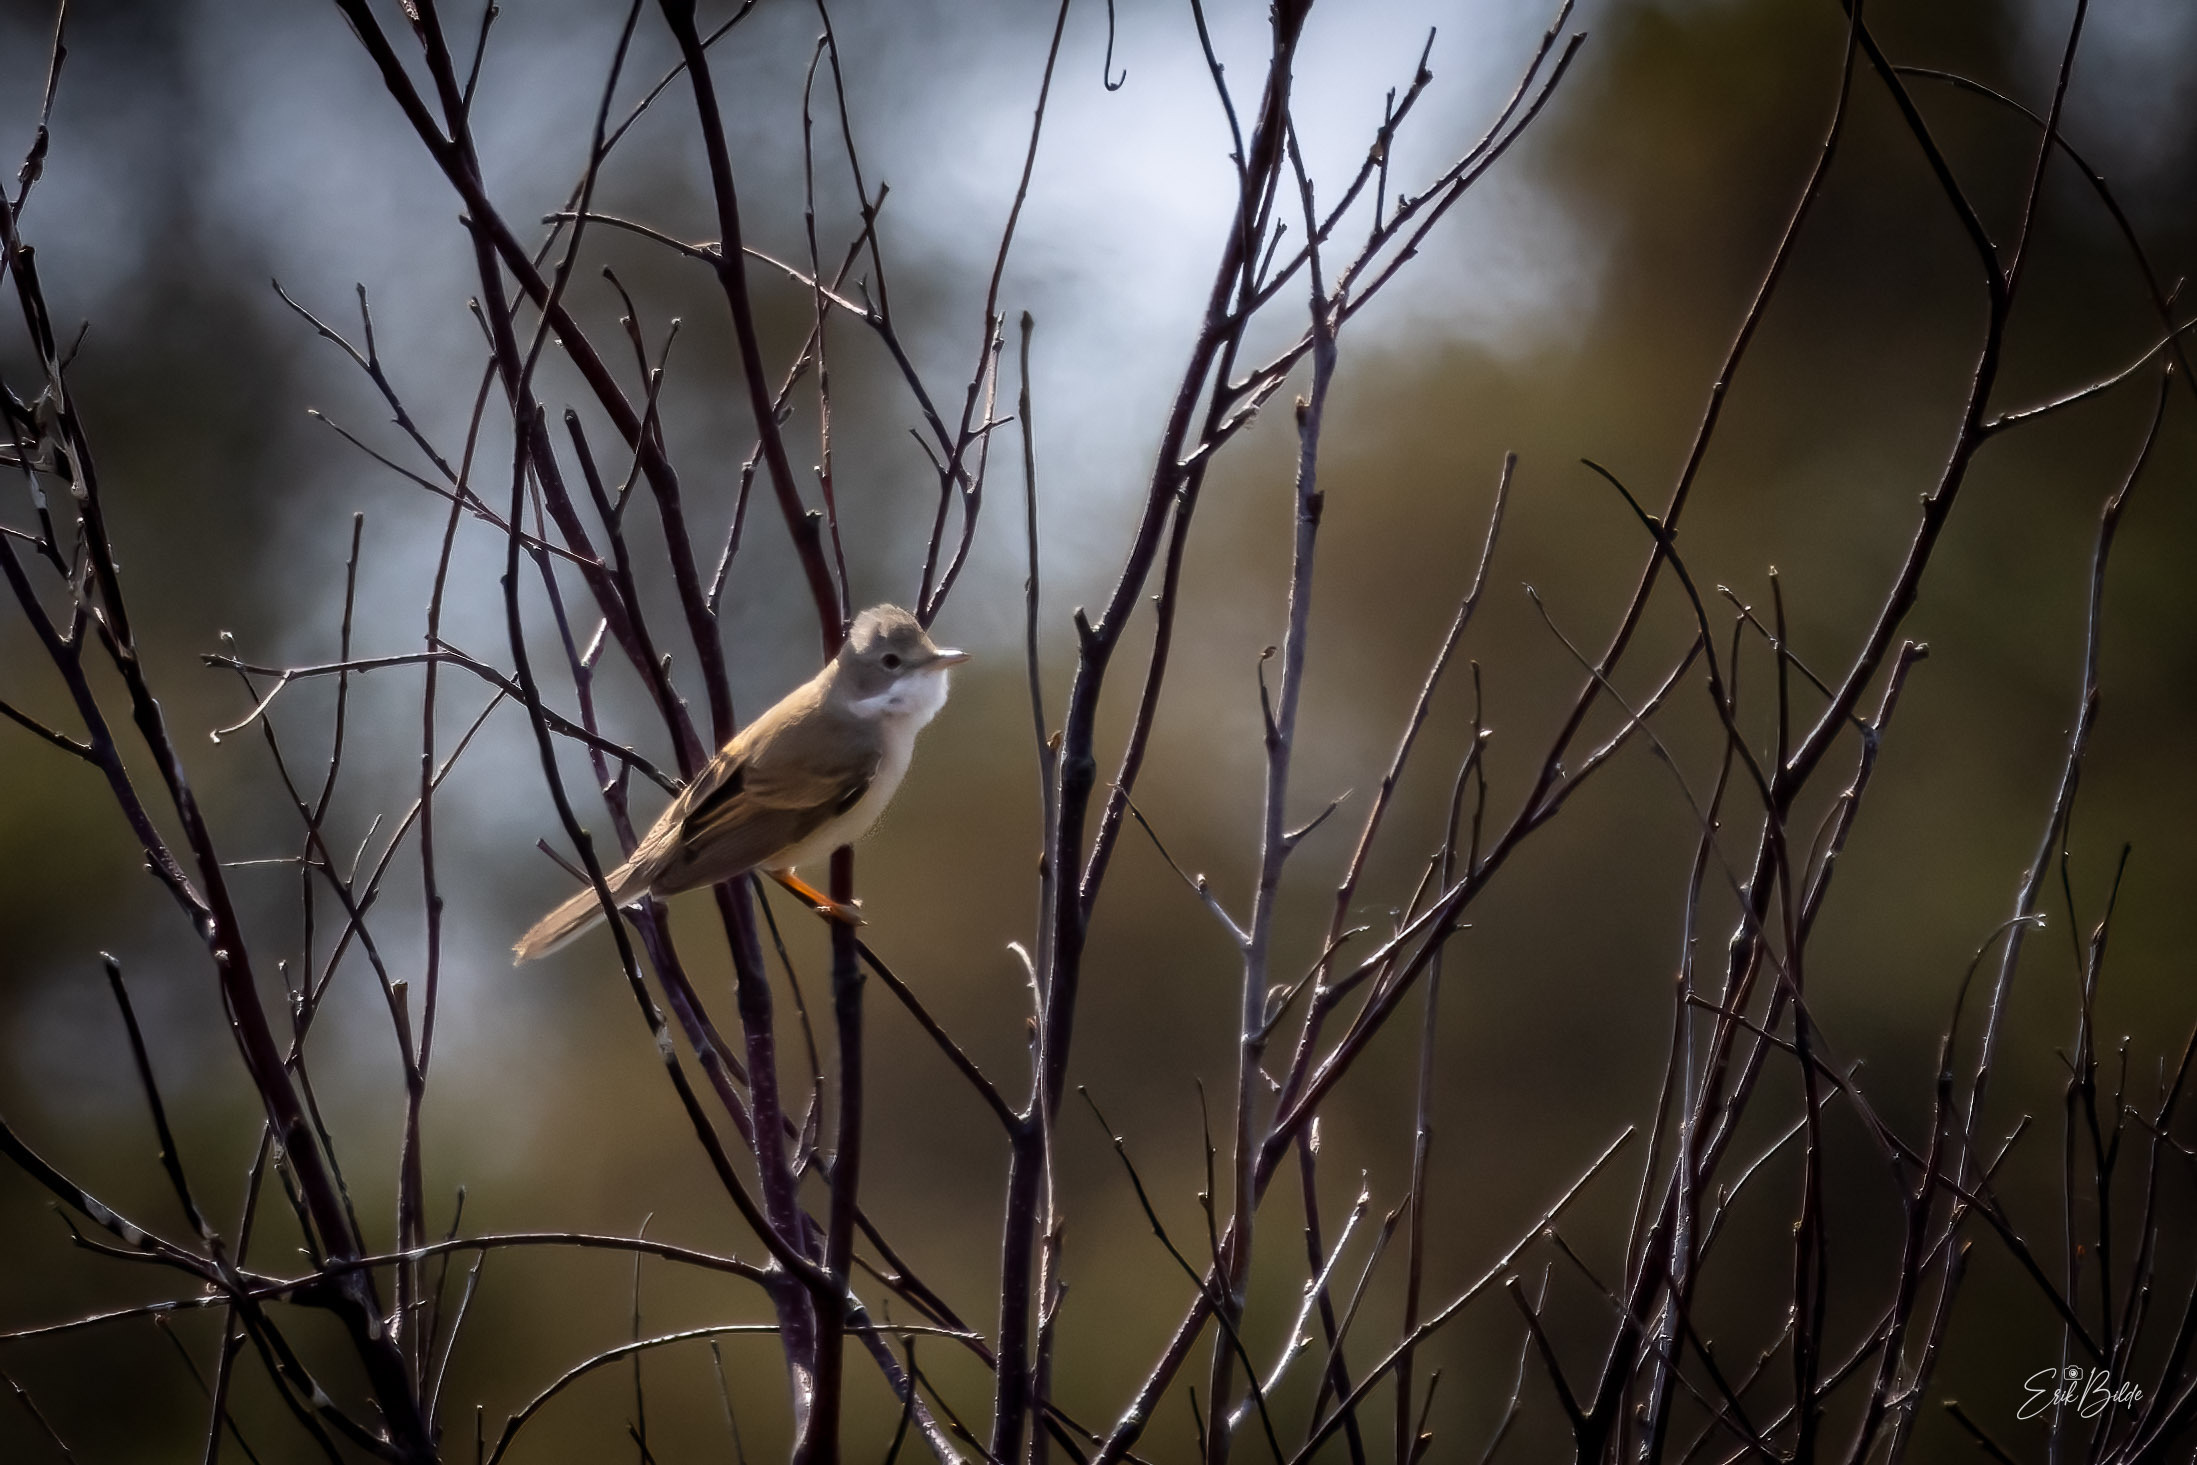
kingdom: Animalia
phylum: Chordata
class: Aves
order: Passeriformes
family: Sylviidae
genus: Sylvia
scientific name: Sylvia communis
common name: Tornsanger
